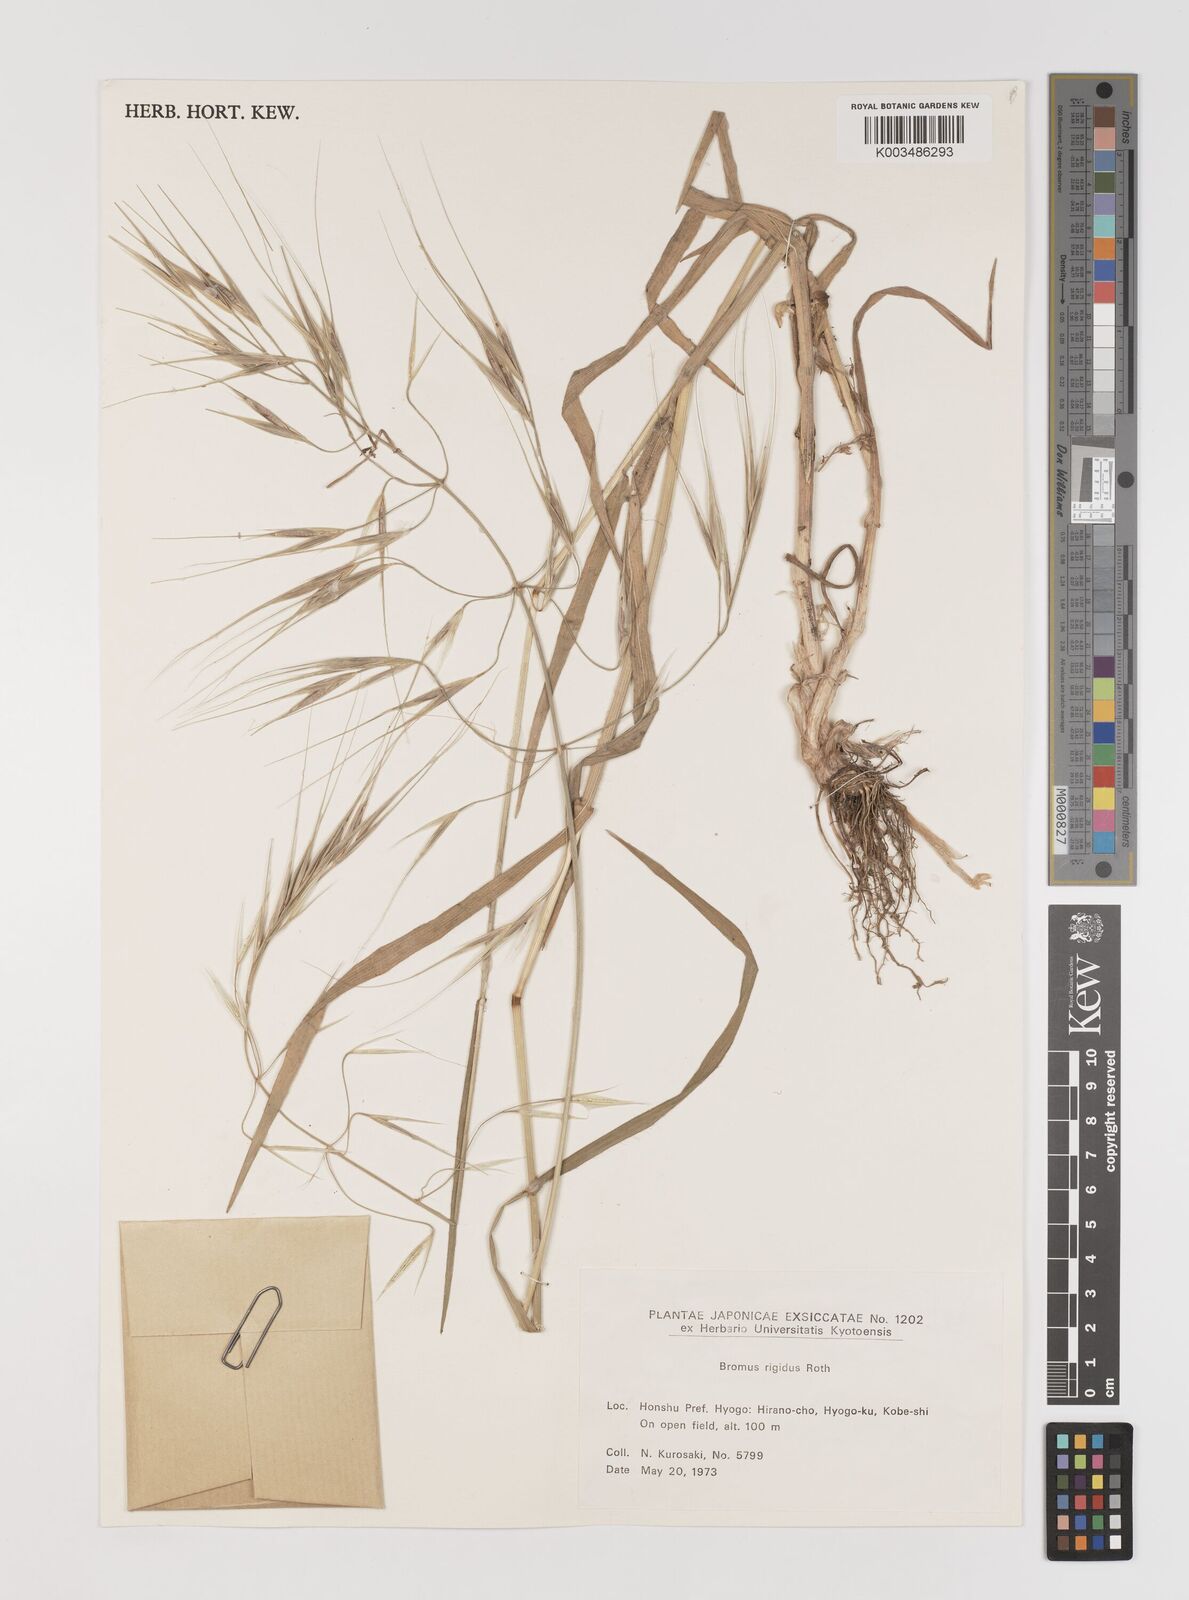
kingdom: Plantae
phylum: Tracheophyta
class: Liliopsida
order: Poales
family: Poaceae
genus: Bromus
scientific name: Bromus diandrus
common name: Ripgut brome
